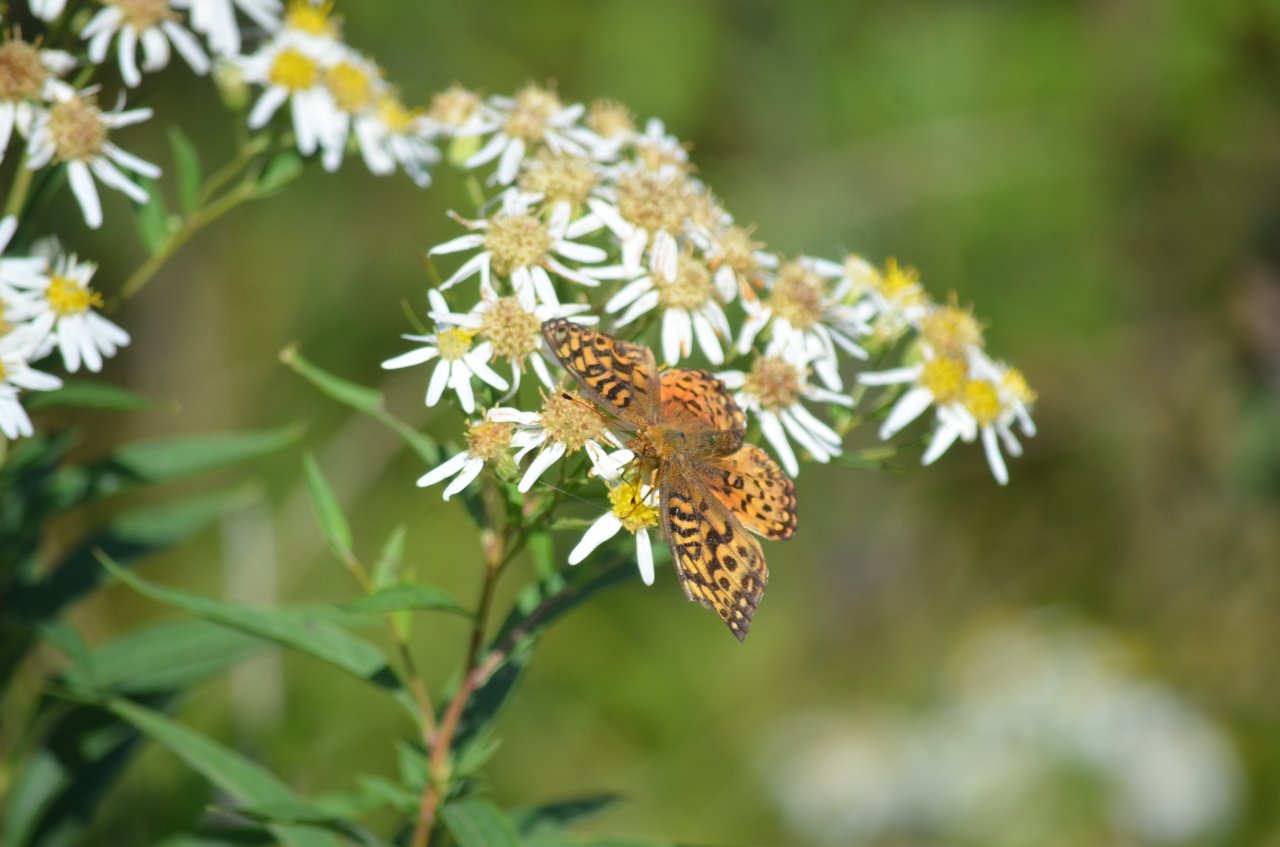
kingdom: Animalia
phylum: Arthropoda
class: Insecta
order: Lepidoptera
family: Nymphalidae
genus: Speyeria
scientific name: Speyeria aphrodite
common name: Aphrodite Fritillary
